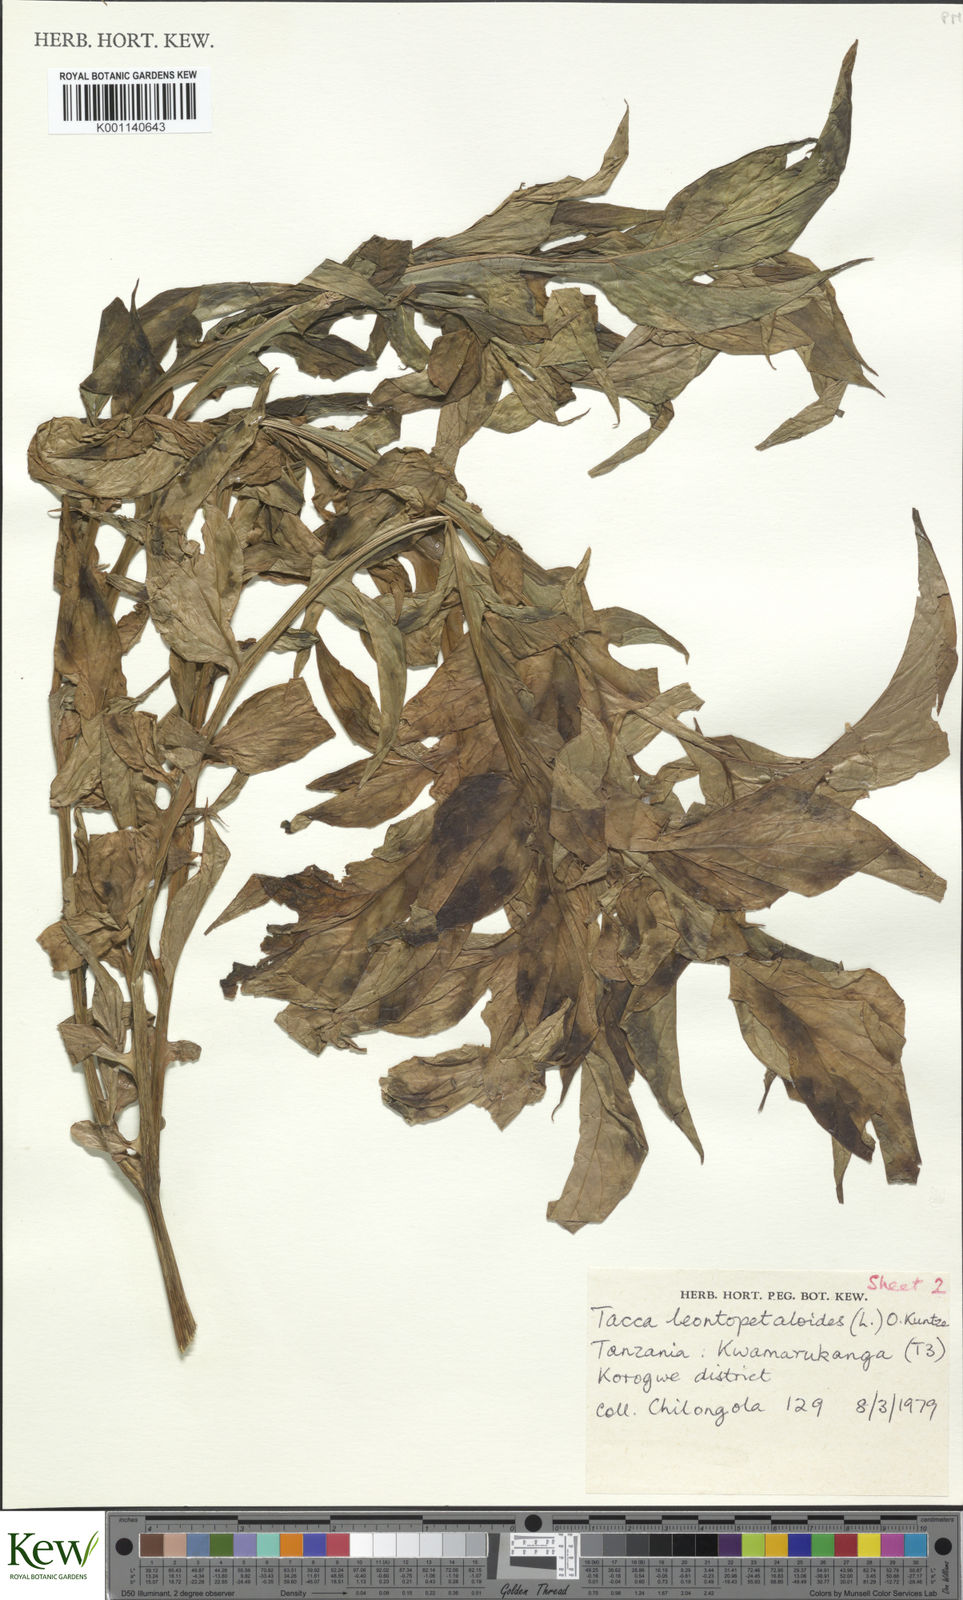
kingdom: Plantae
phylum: Tracheophyta
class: Liliopsida
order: Dioscoreales
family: Dioscoreaceae
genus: Tacca
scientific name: Tacca leontopetaloides
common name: Arrowroot
